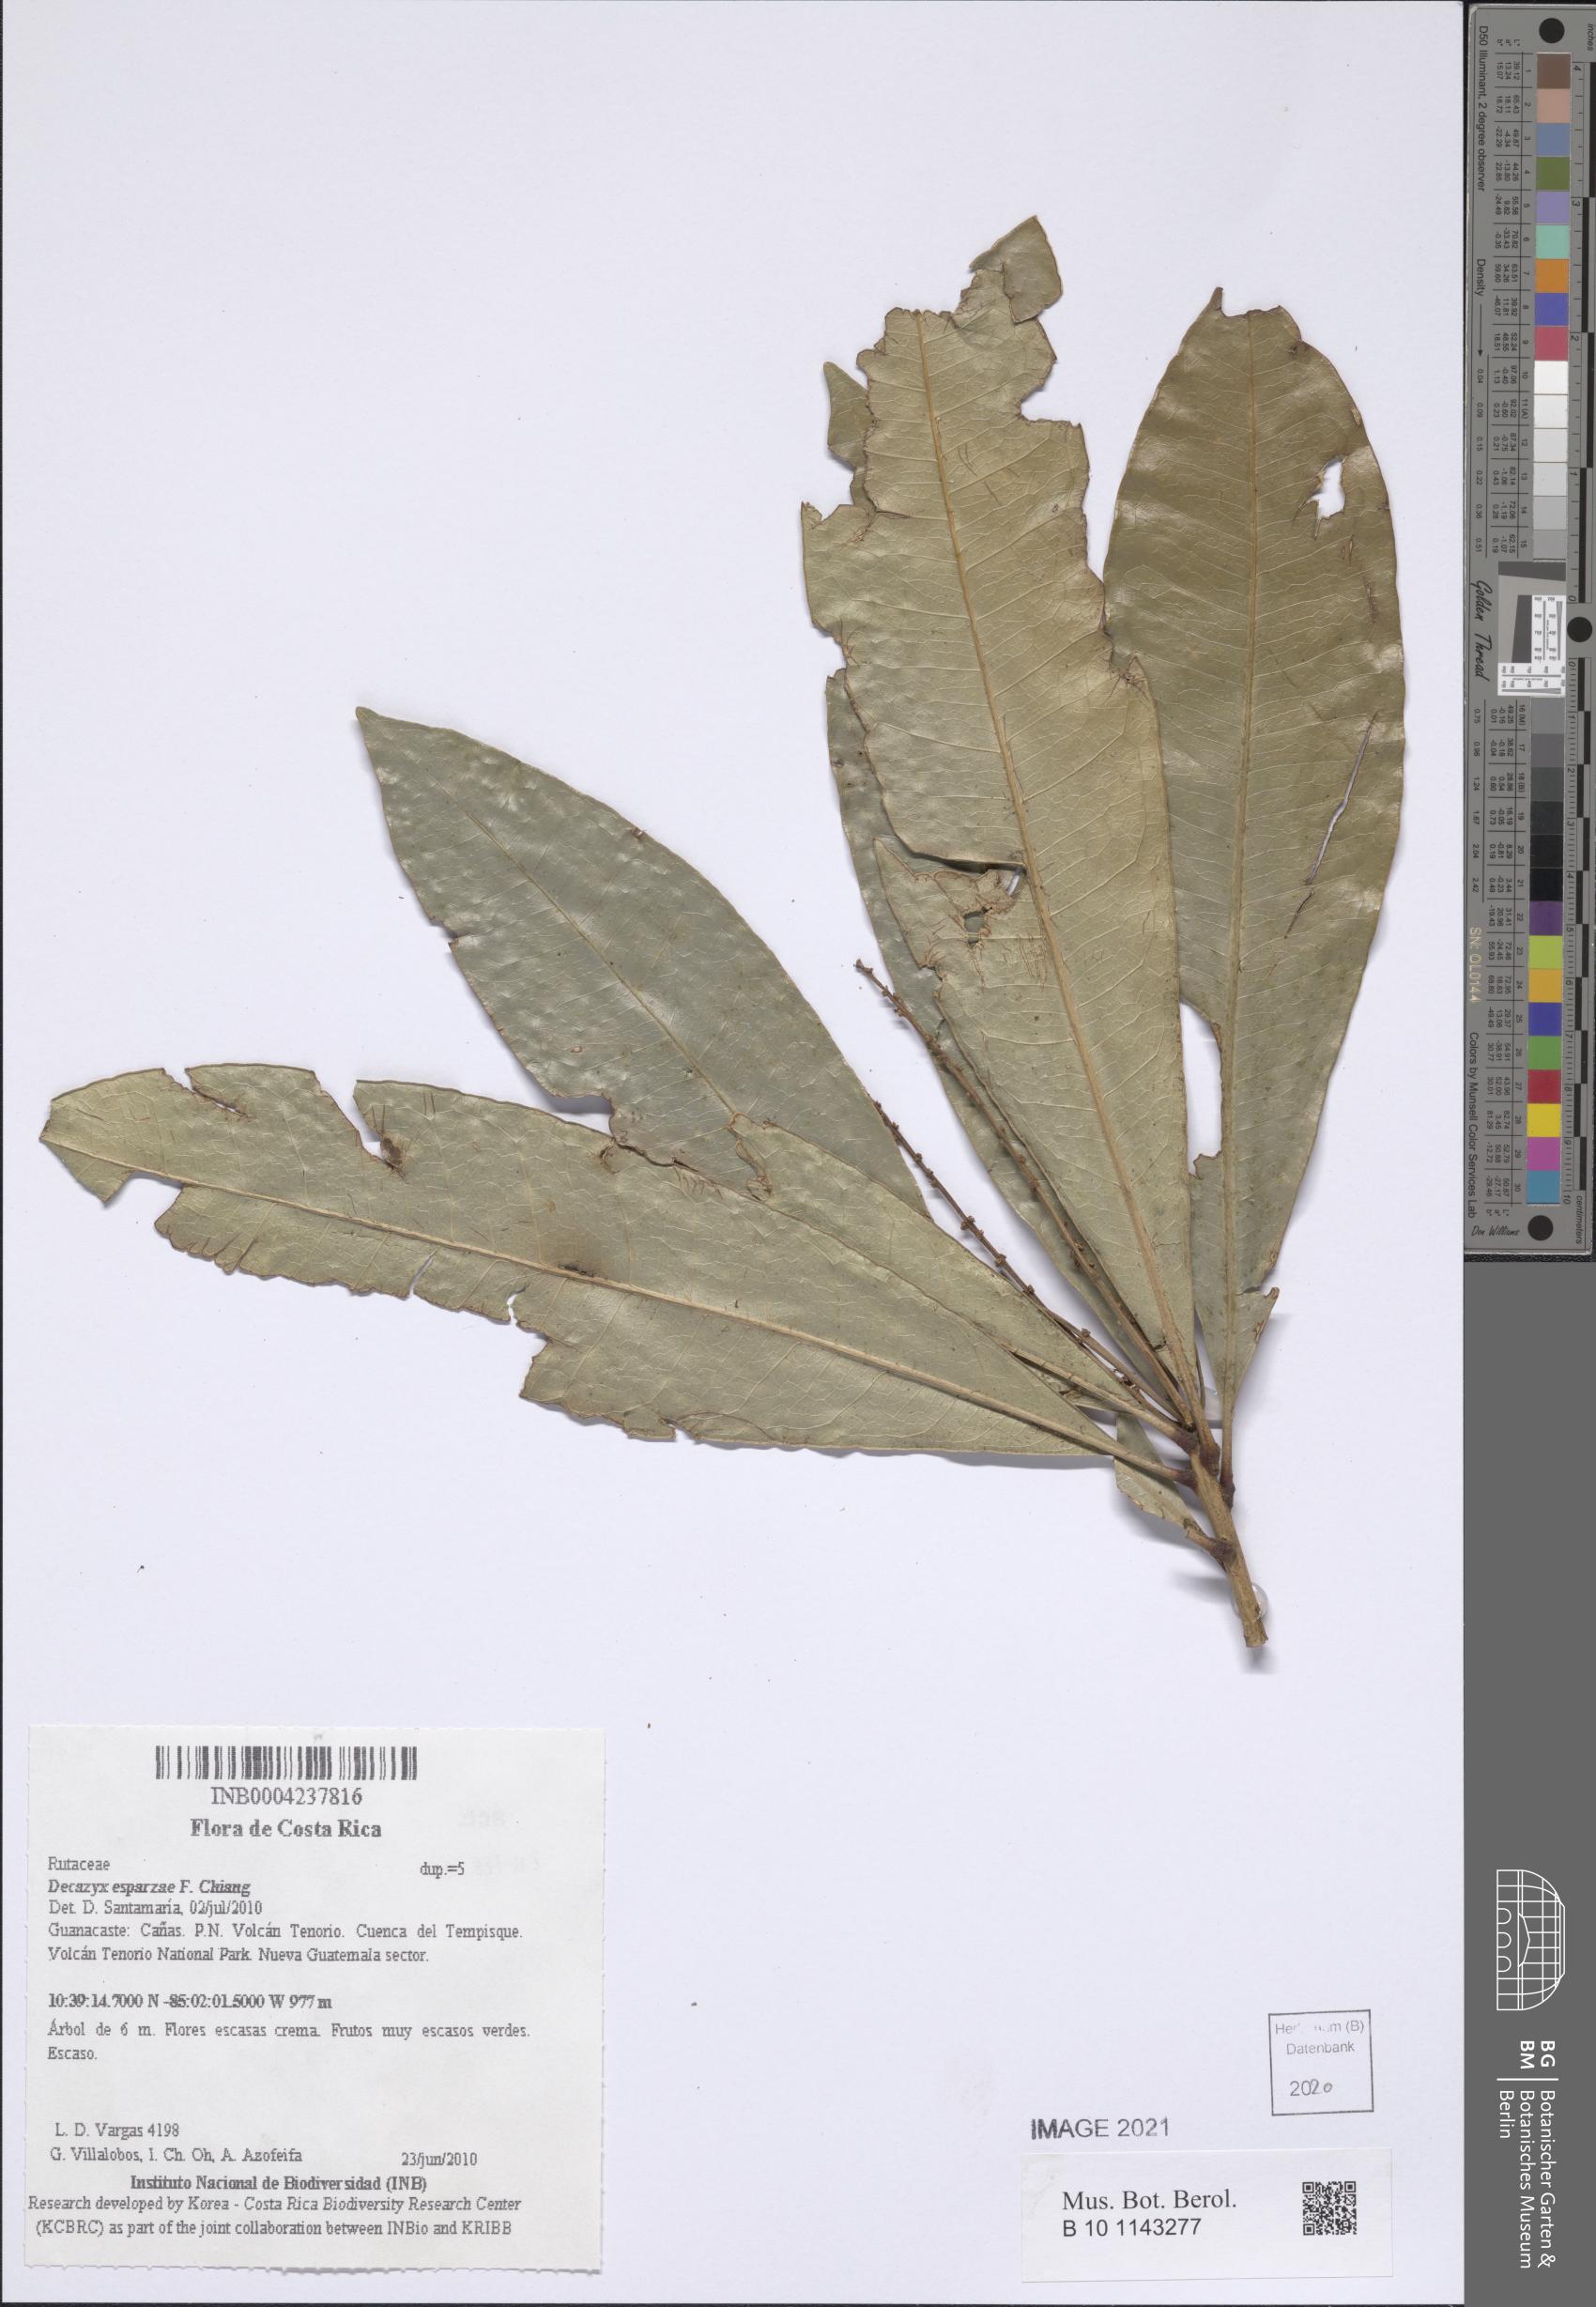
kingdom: Plantae
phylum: Tracheophyta
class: Magnoliopsida
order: Sapindales
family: Rutaceae
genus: Decazyx
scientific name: Decazyx esparzae
